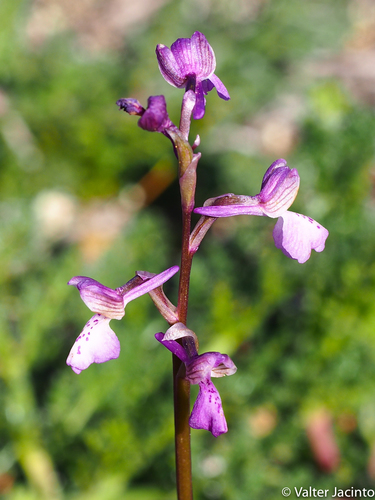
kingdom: Plantae
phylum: Tracheophyta
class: Liliopsida
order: Asparagales
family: Orchidaceae
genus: Anacamptis
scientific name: Anacamptis morio
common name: Green-winged orchid
